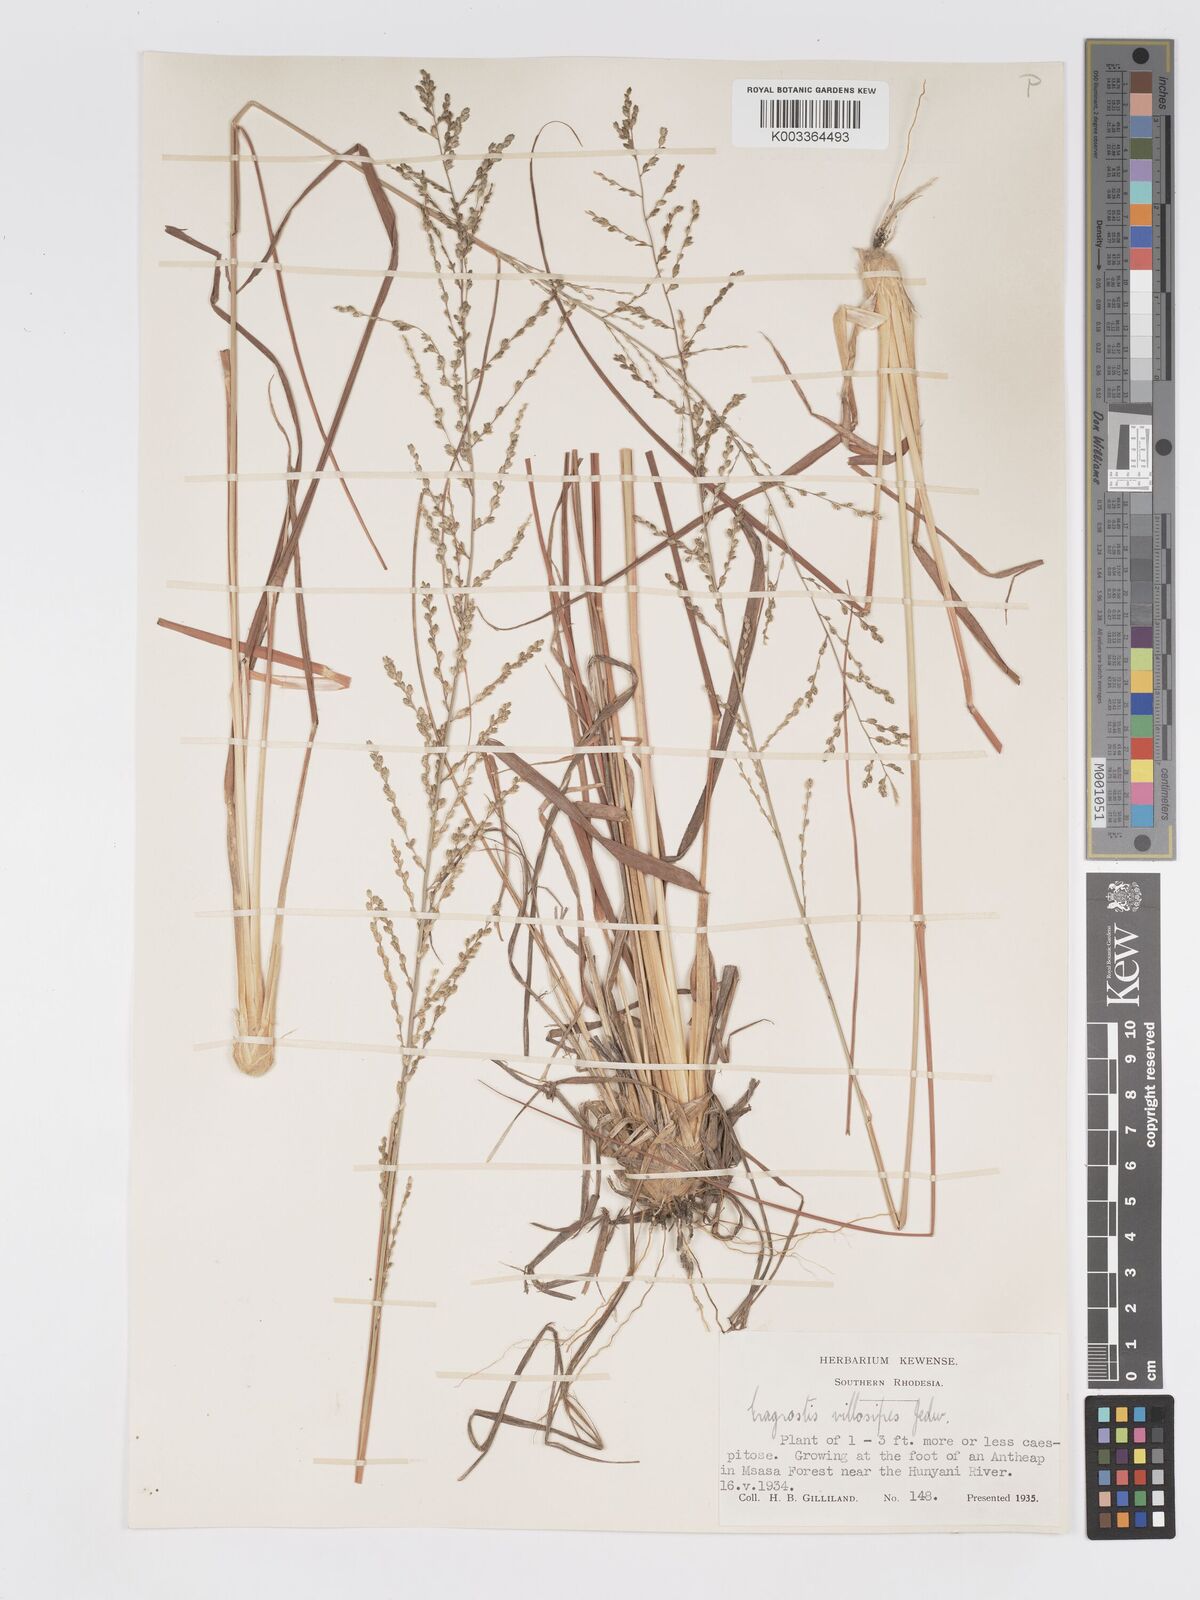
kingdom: Plantae
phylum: Tracheophyta
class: Liliopsida
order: Poales
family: Poaceae
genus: Eragrostis
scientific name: Eragrostis sclerantha
